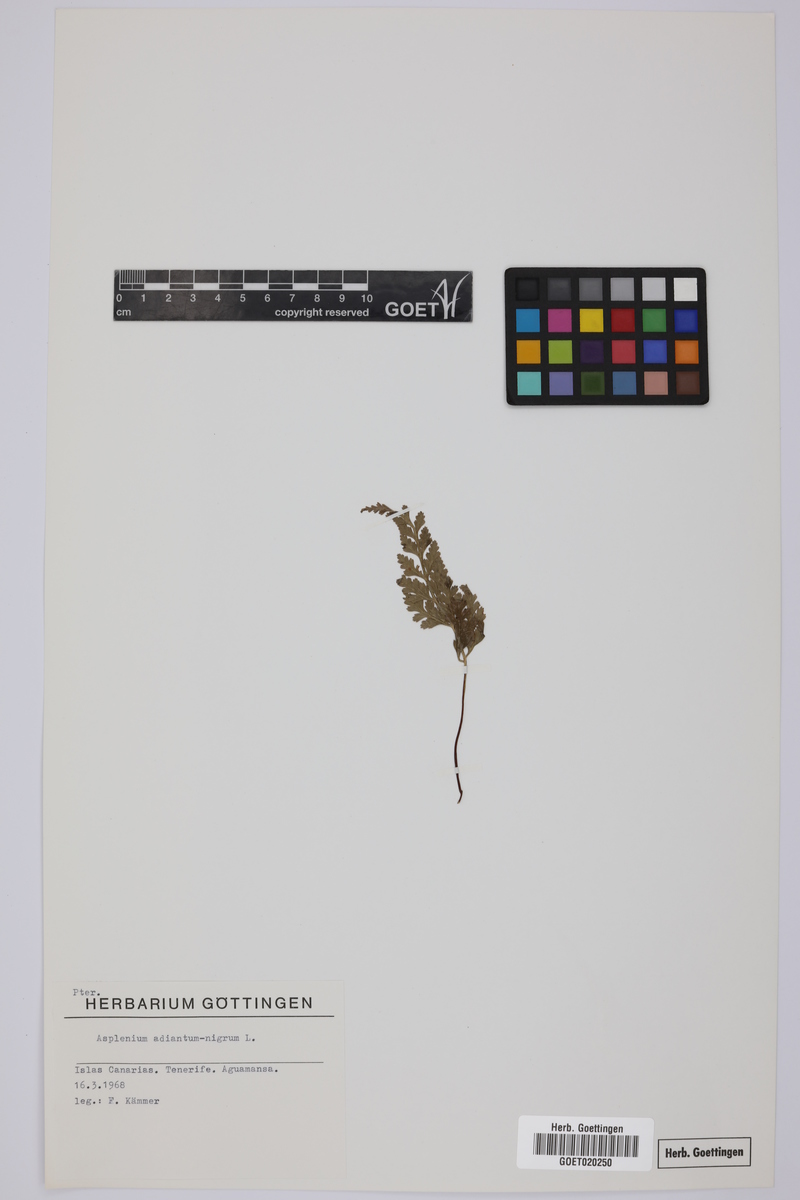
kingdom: Plantae
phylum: Tracheophyta
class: Polypodiopsida
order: Polypodiales
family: Aspleniaceae
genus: Asplenium
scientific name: Asplenium adiantum-nigrum
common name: Black spleenwort
